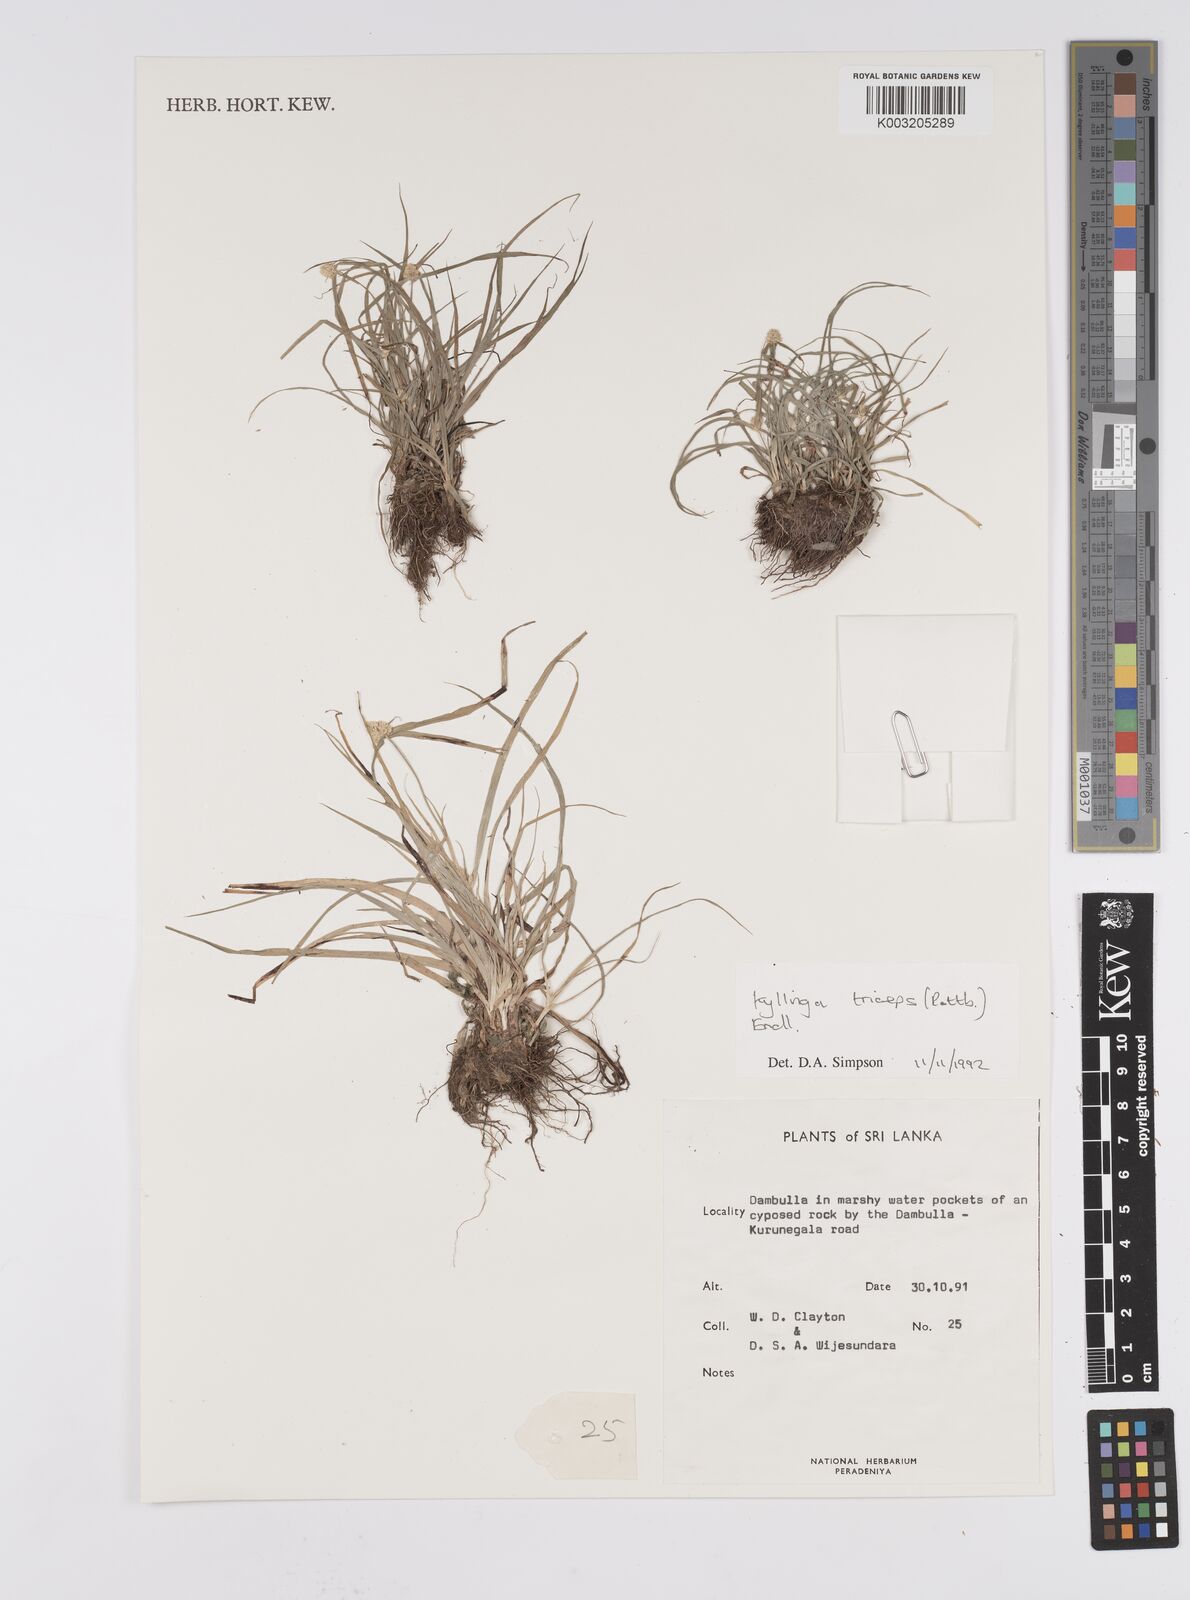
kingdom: Plantae
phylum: Tracheophyta
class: Liliopsida
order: Poales
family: Cyperaceae
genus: Cyperus
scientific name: Cyperus
